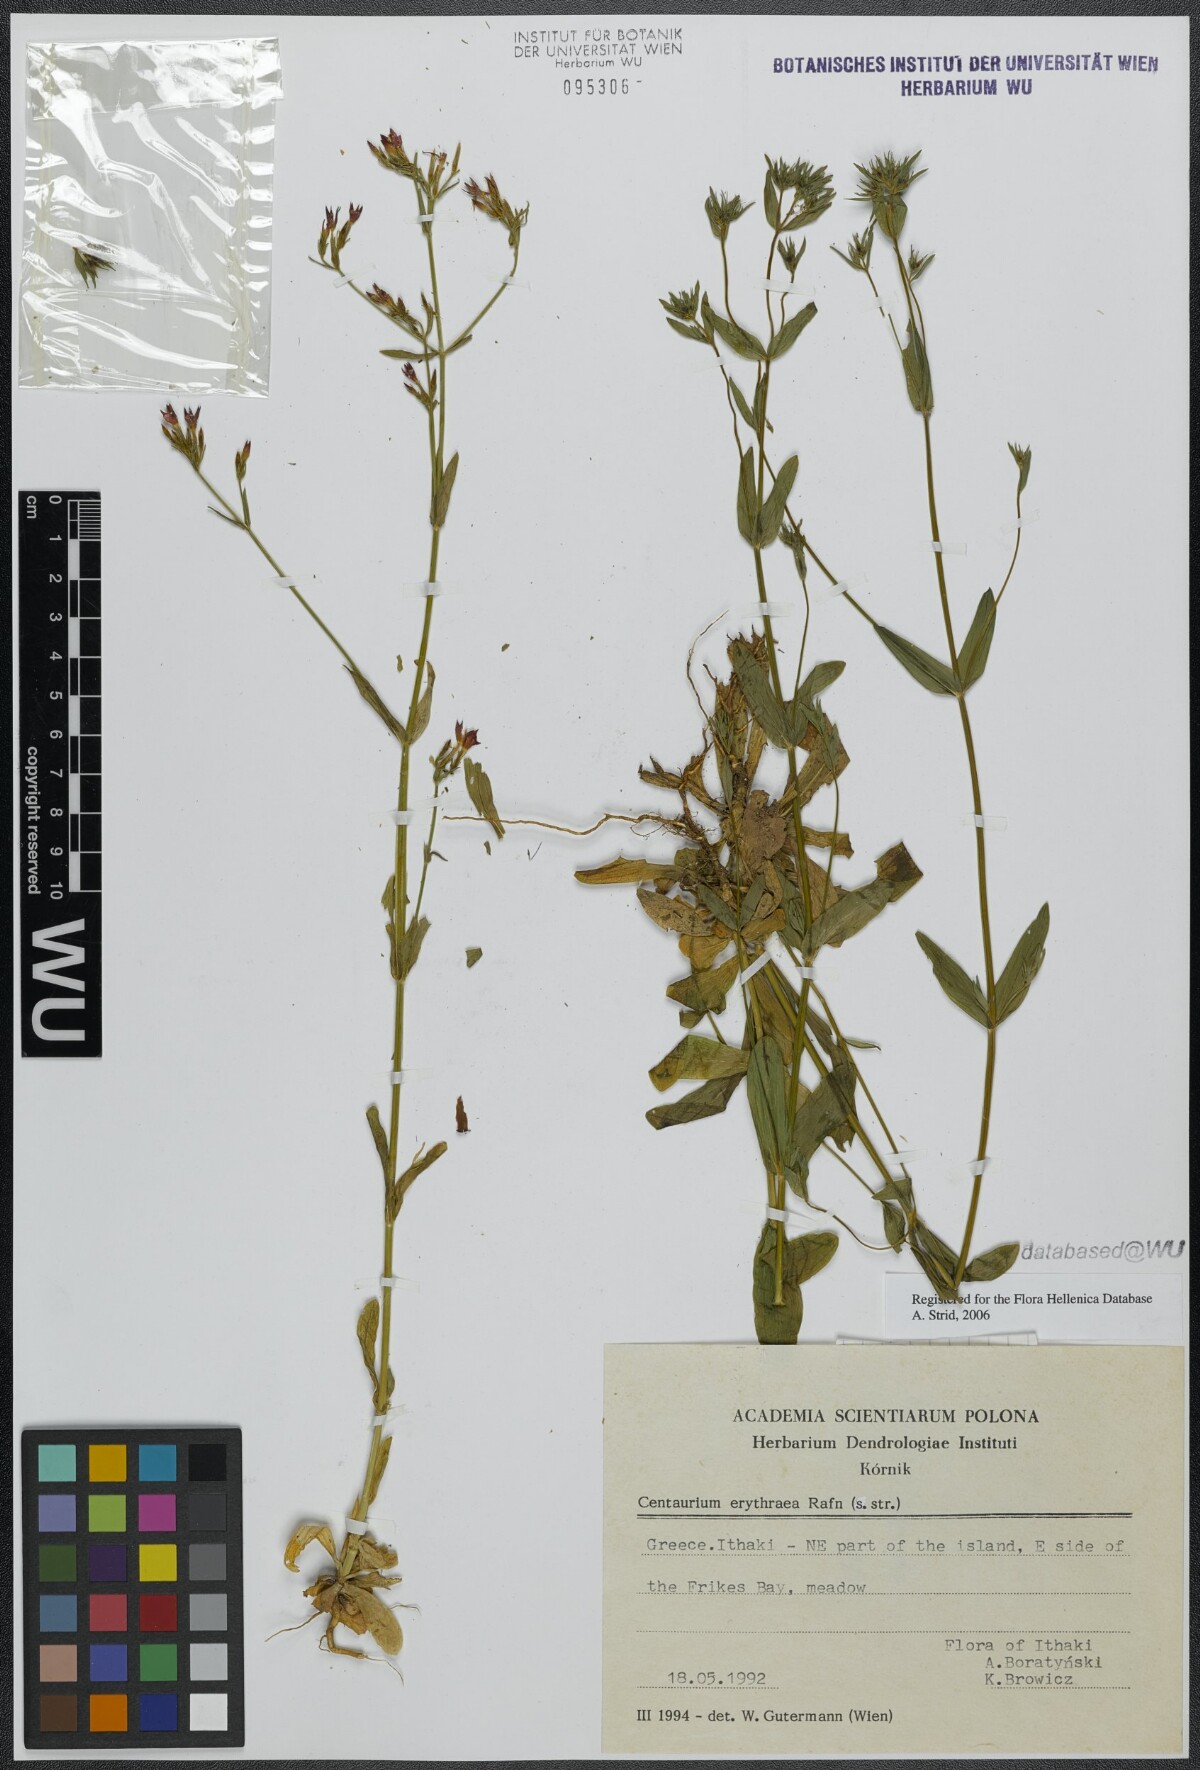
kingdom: Plantae
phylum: Tracheophyta
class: Magnoliopsida
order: Gentianales
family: Gentianaceae
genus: Centaurium
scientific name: Centaurium erythraea
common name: Common centaury
